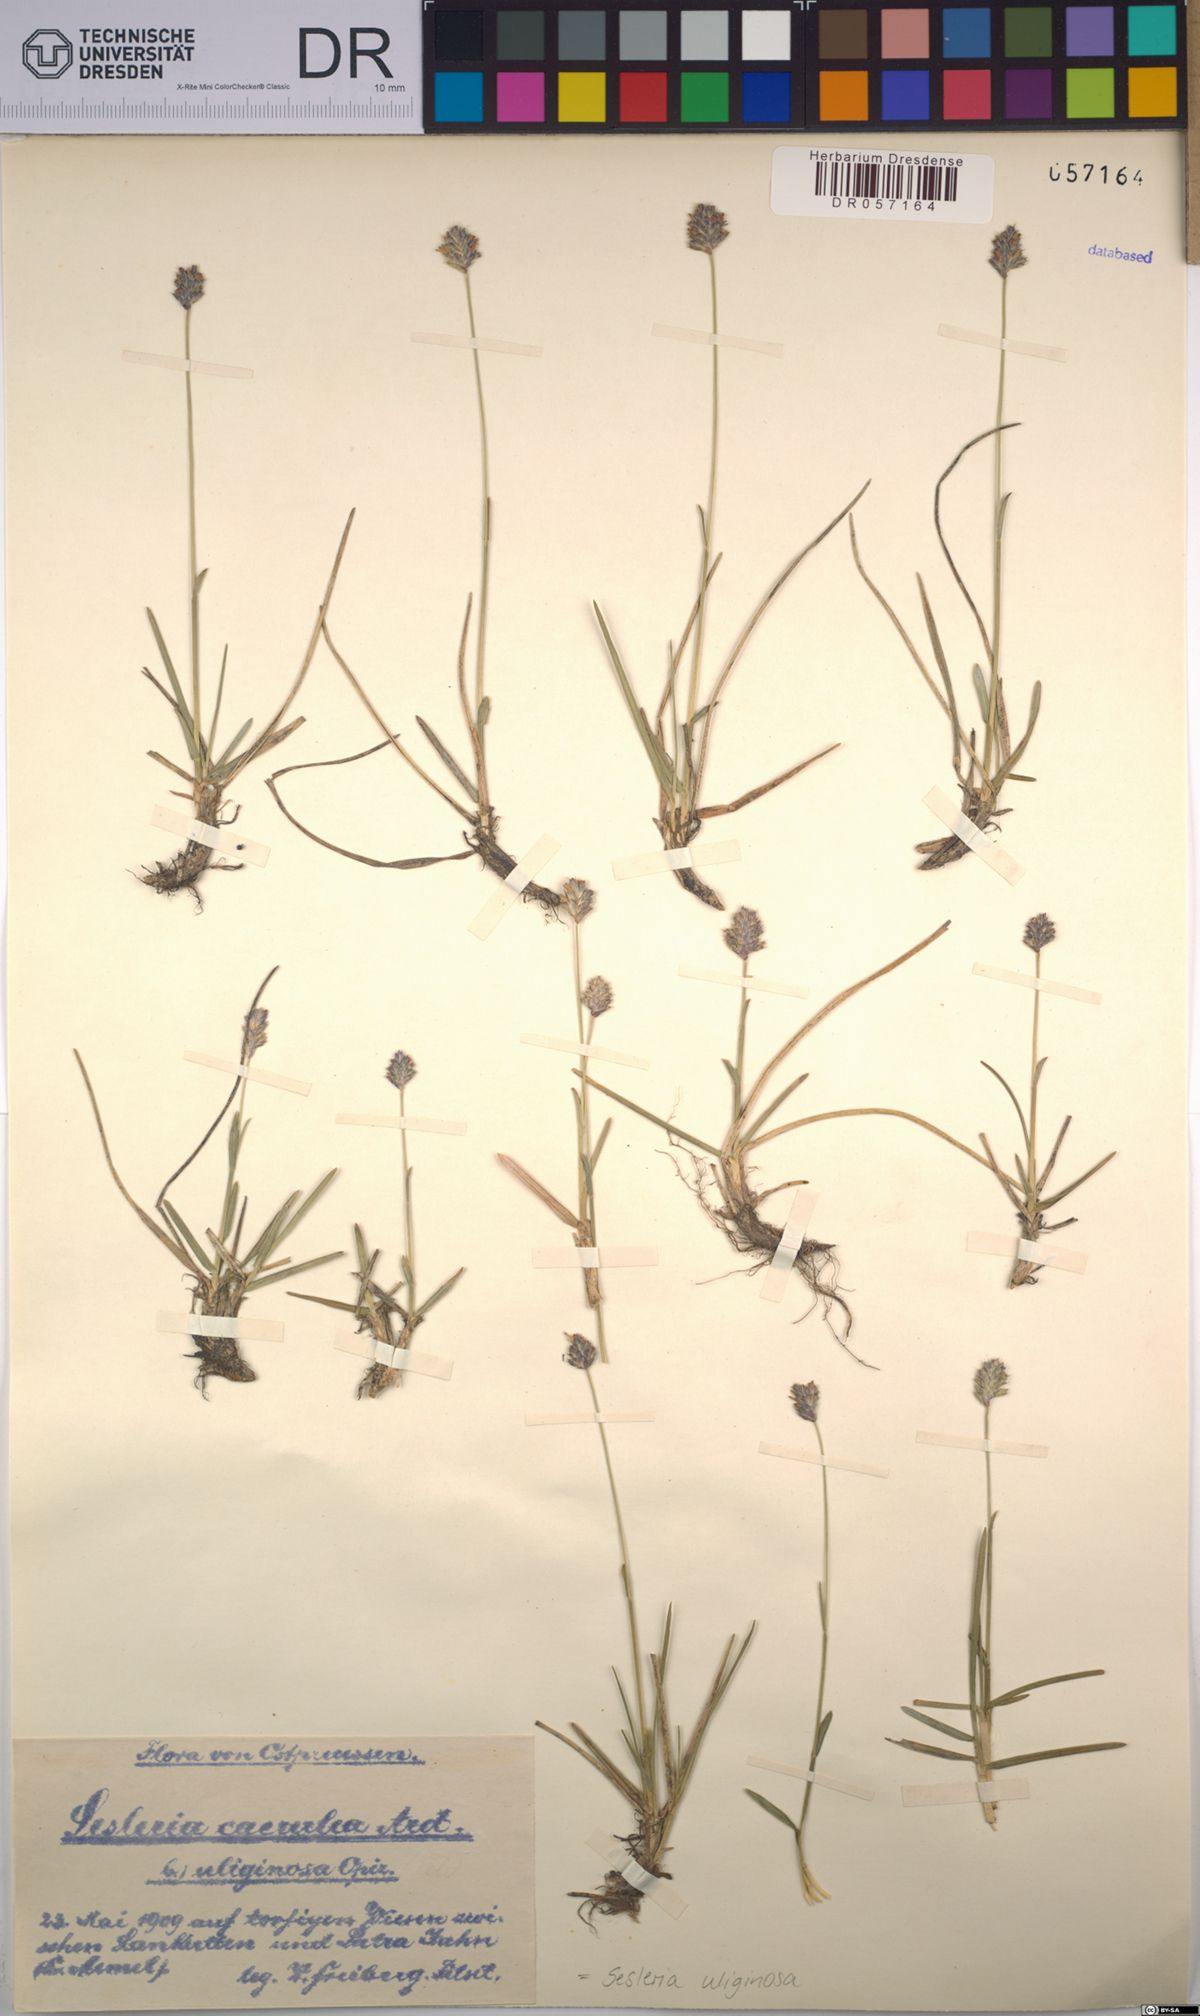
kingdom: Plantae
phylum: Tracheophyta
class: Liliopsida
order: Poales
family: Poaceae
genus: Sesleria
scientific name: Sesleria uliginosa
